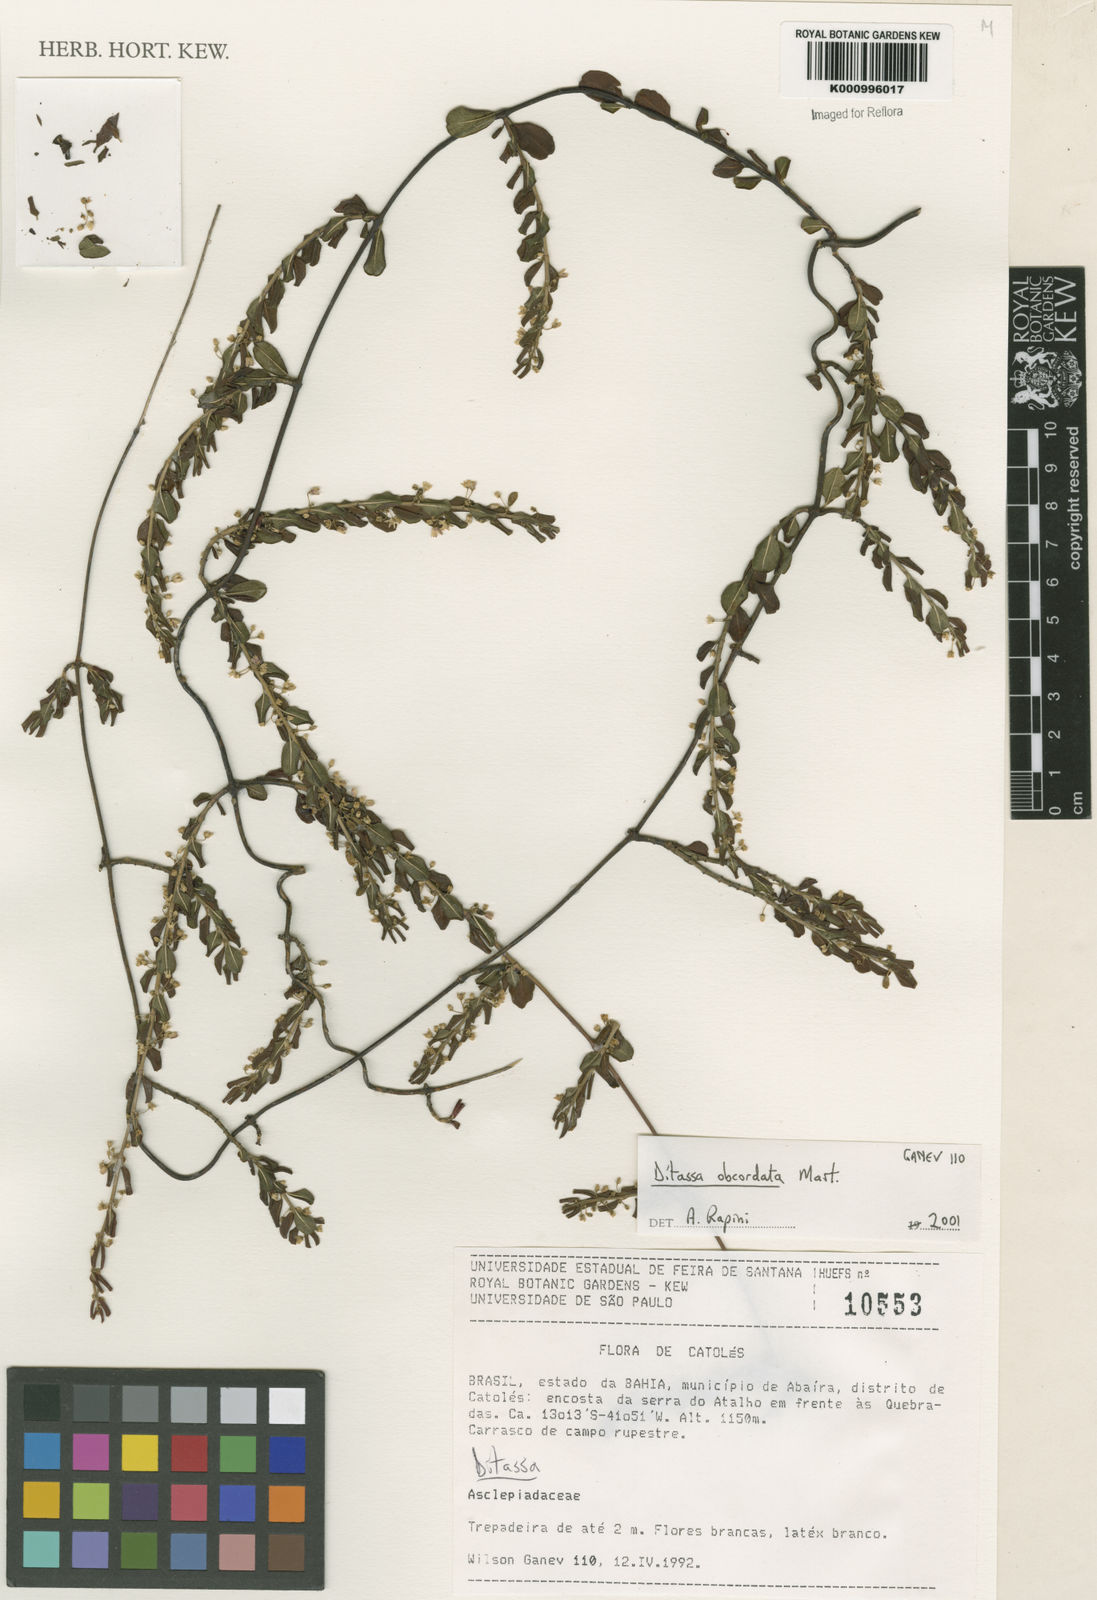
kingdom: Plantae
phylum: Tracheophyta
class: Magnoliopsida
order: Gentianales
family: Apocynaceae
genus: Ditassa
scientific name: Ditassa obcordata
